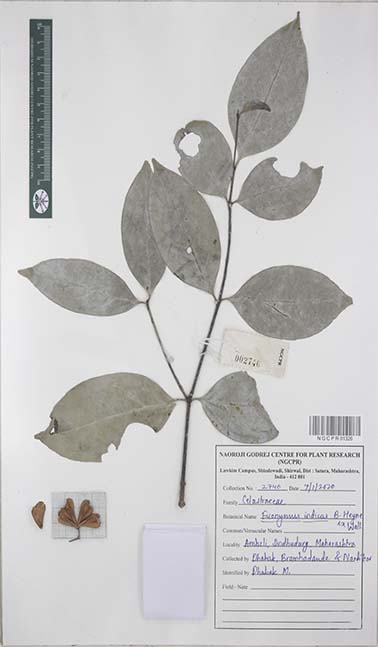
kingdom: Plantae
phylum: Tracheophyta
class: Magnoliopsida
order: Celastrales
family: Celastraceae
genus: Euonymus
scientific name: Euonymus indicus
